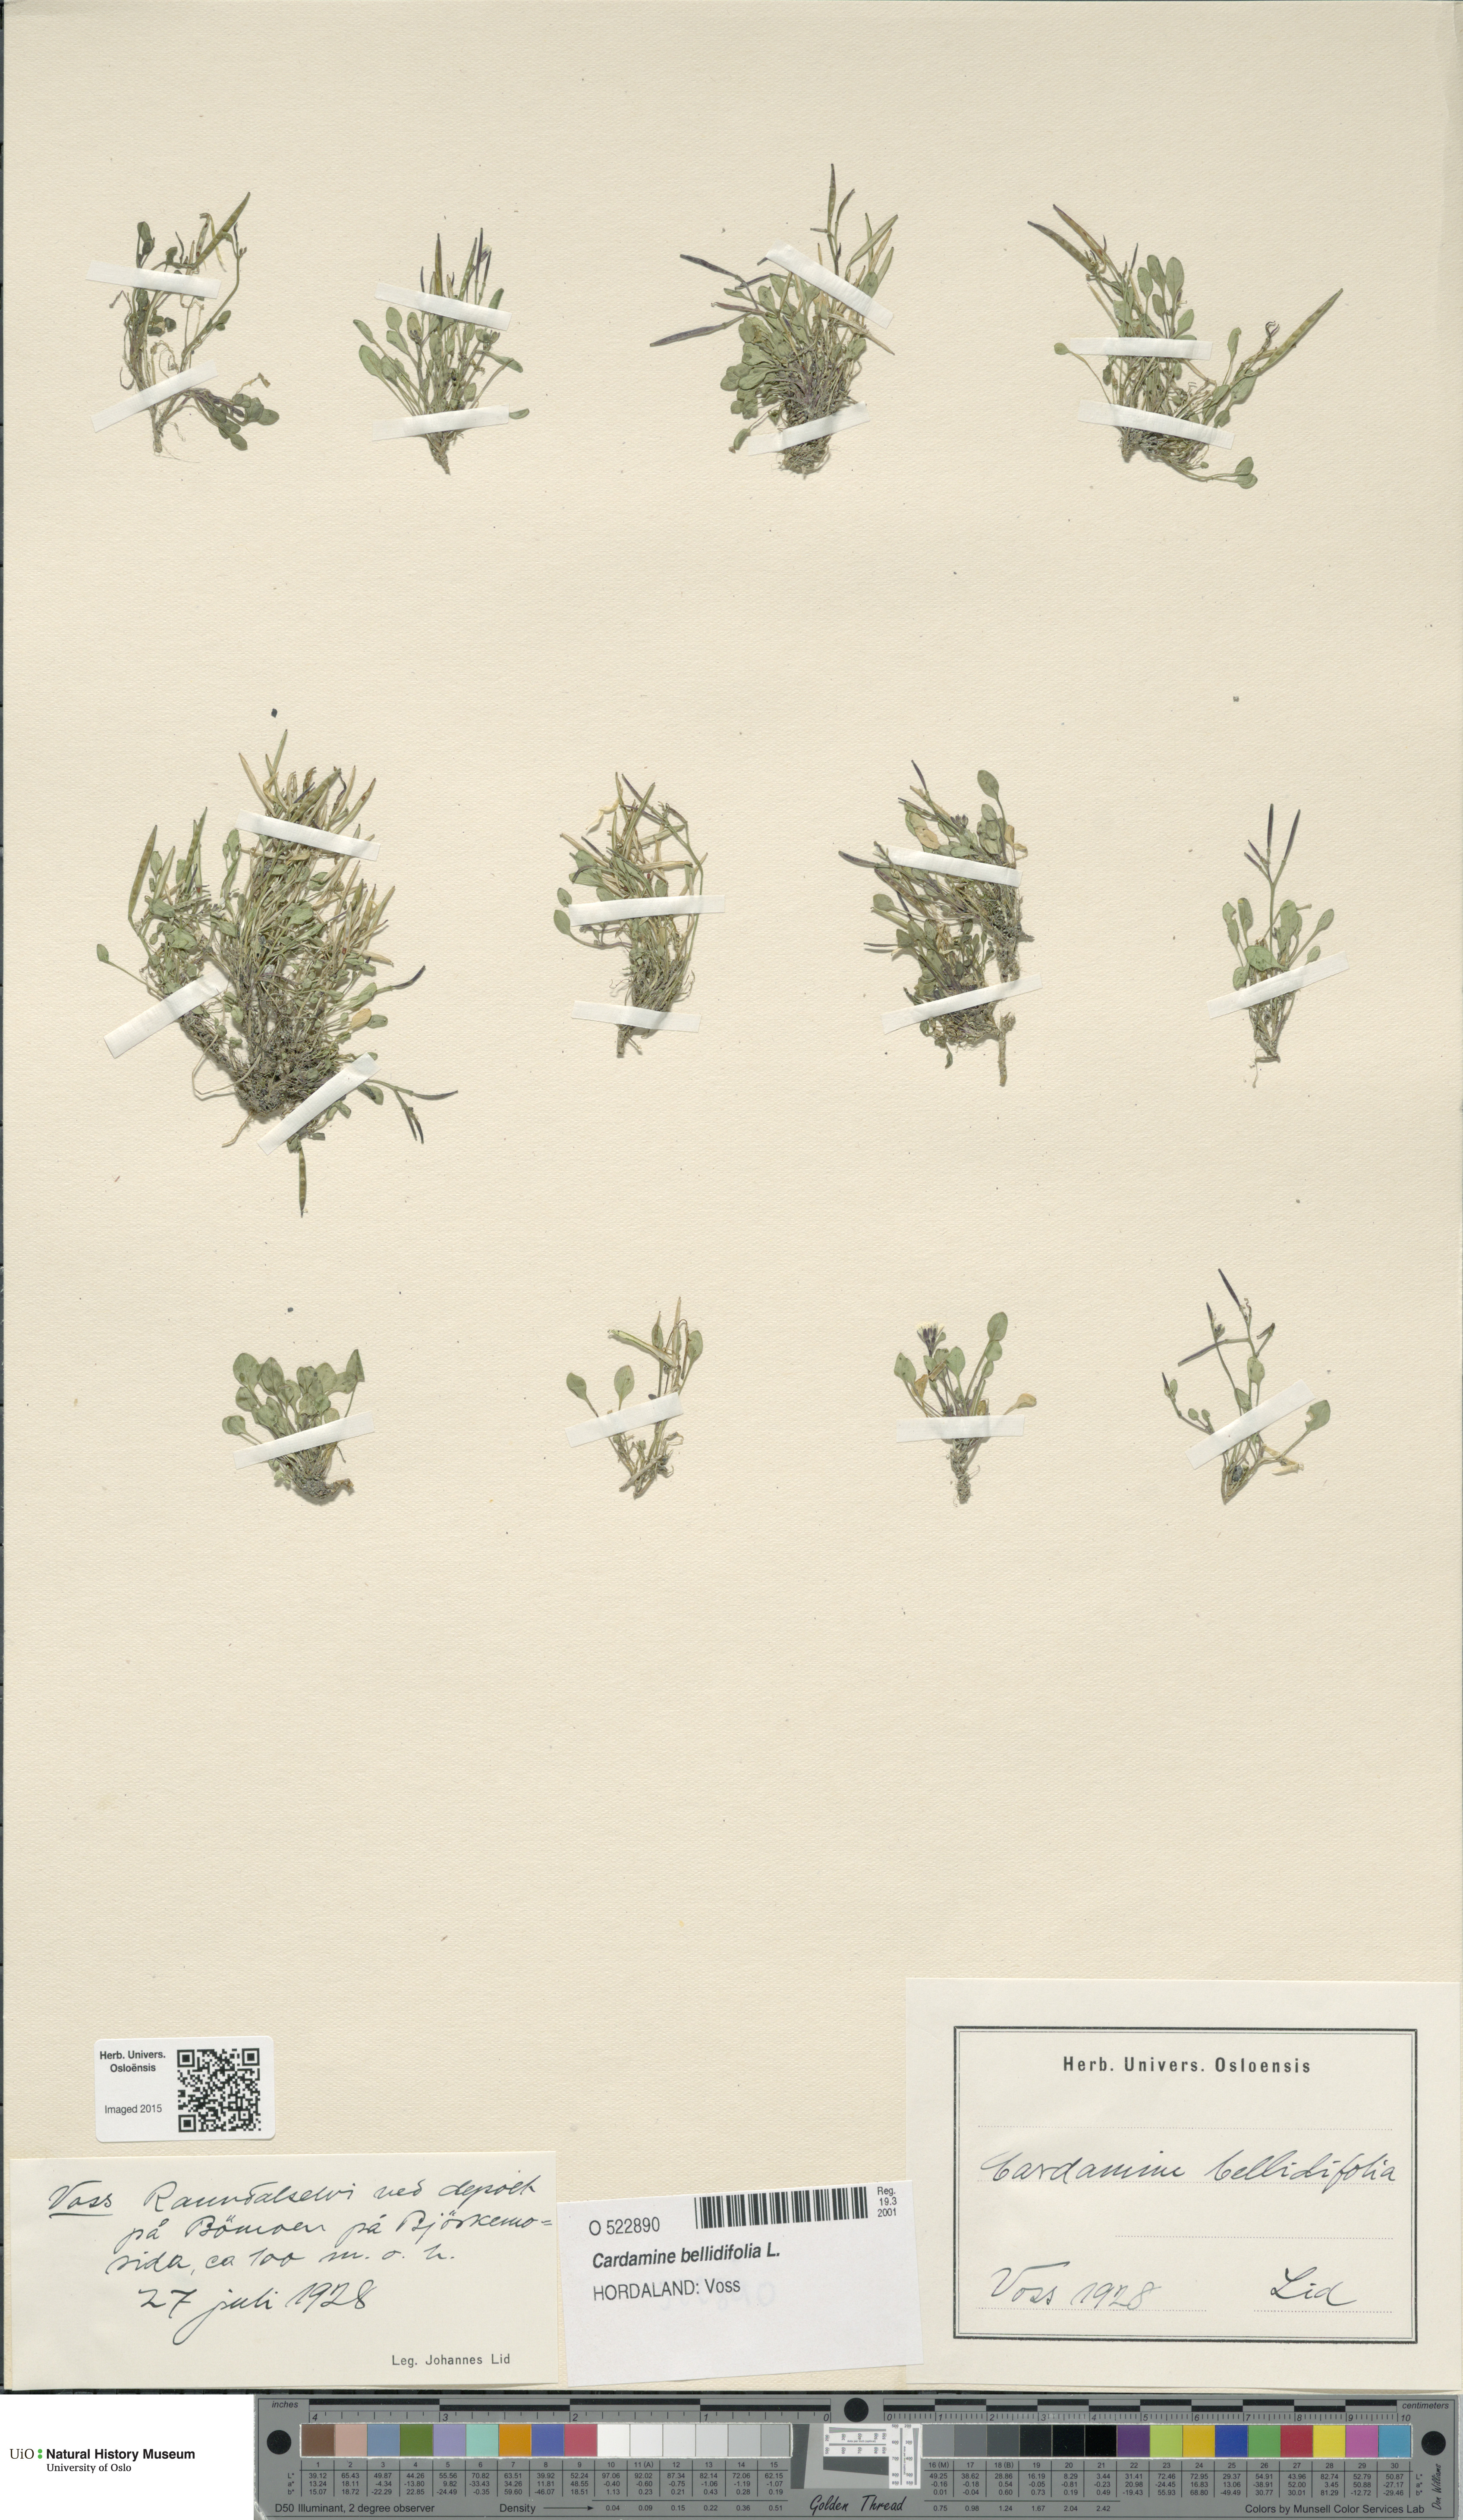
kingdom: Plantae
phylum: Tracheophyta
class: Magnoliopsida
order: Brassicales
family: Brassicaceae
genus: Cardamine
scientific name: Cardamine bellidifolia
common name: Alpine bittercress
